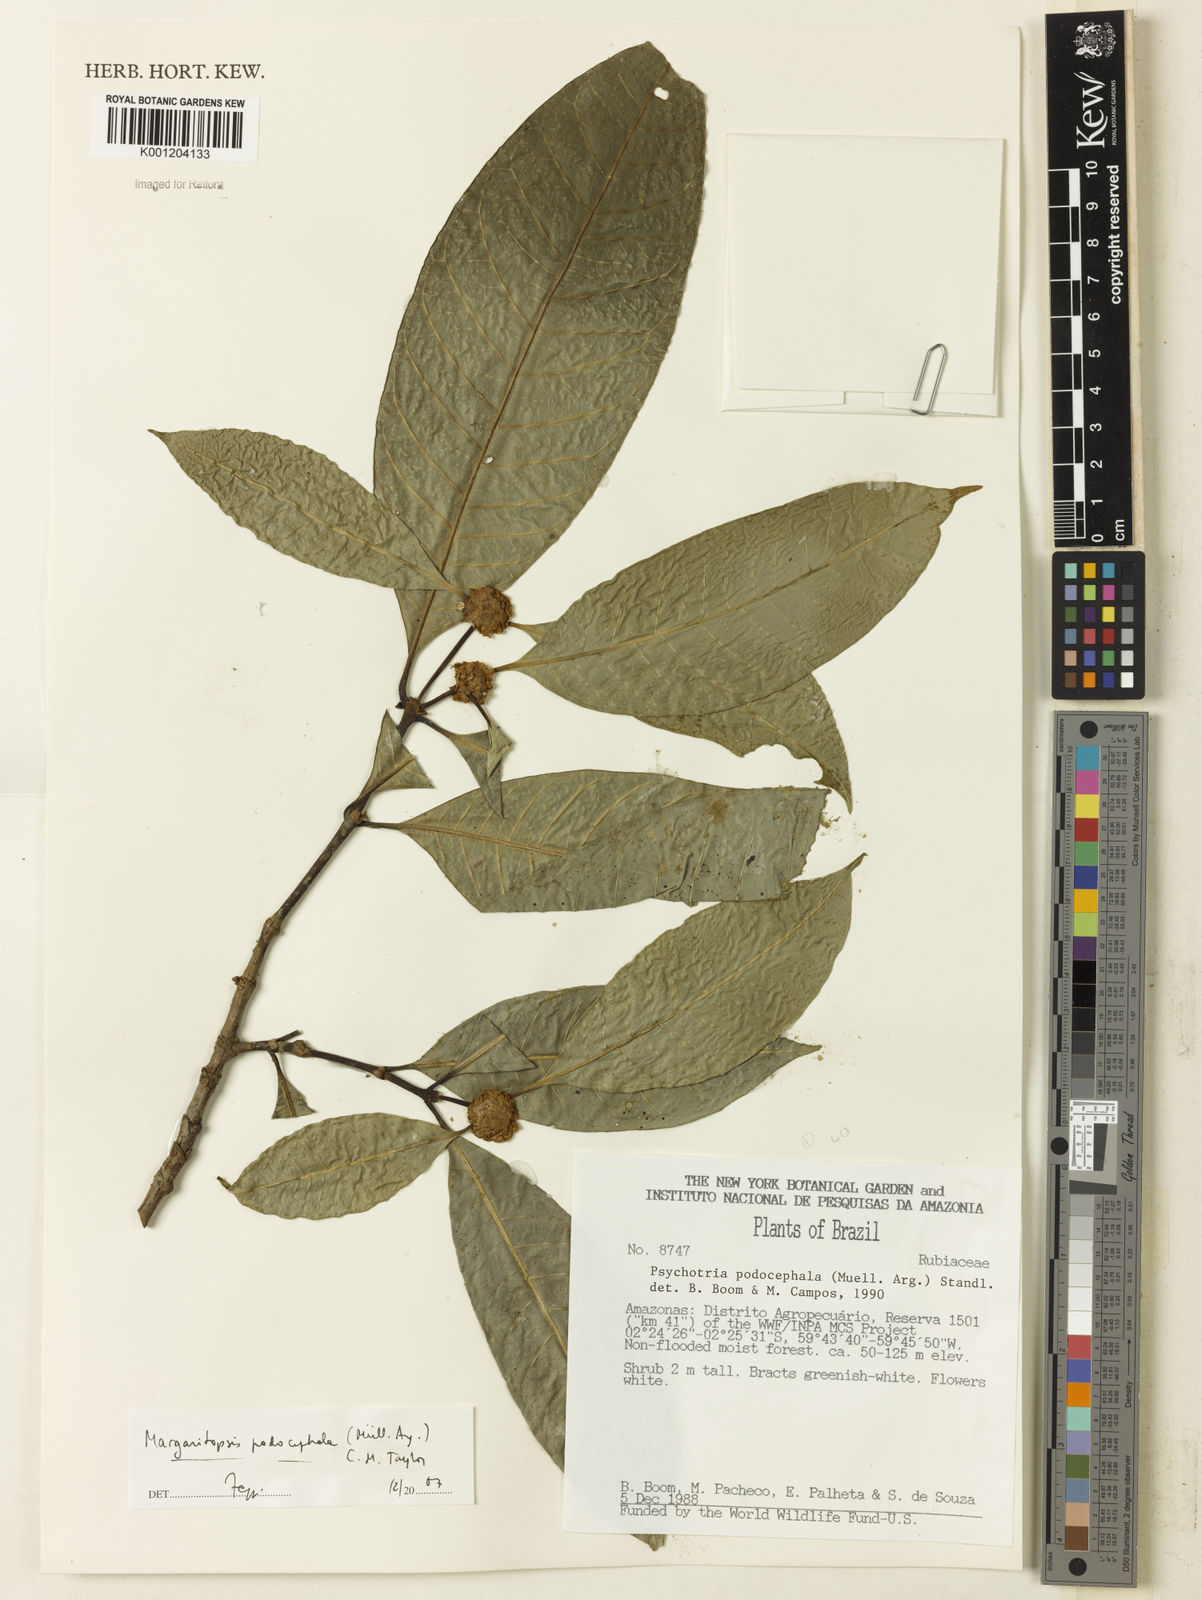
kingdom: Plantae
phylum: Tracheophyta
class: Magnoliopsida
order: Gentianales
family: Rubiaceae
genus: Eumachia
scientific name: Eumachia
